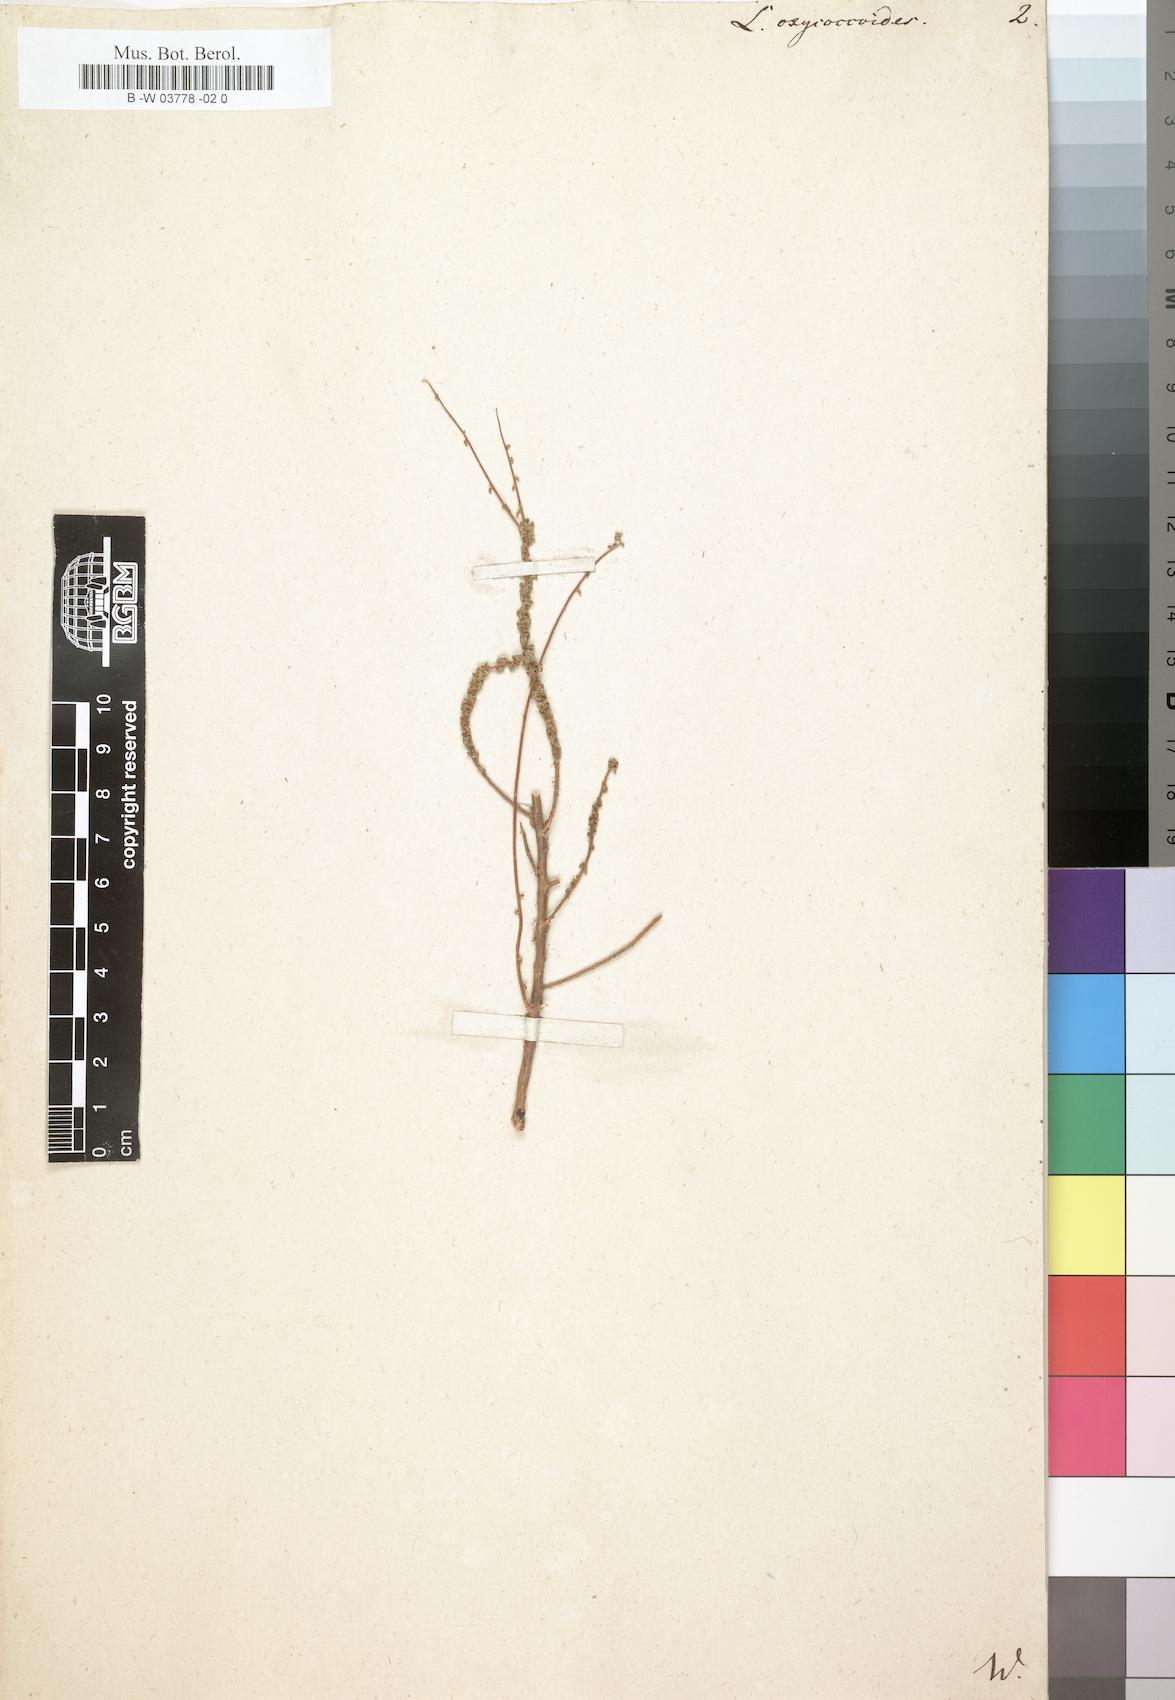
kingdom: Plantae
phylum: Tracheophyta
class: Magnoliopsida
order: Asterales
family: Campanulaceae
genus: Wahlenbergia
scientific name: Wahlenbergia
